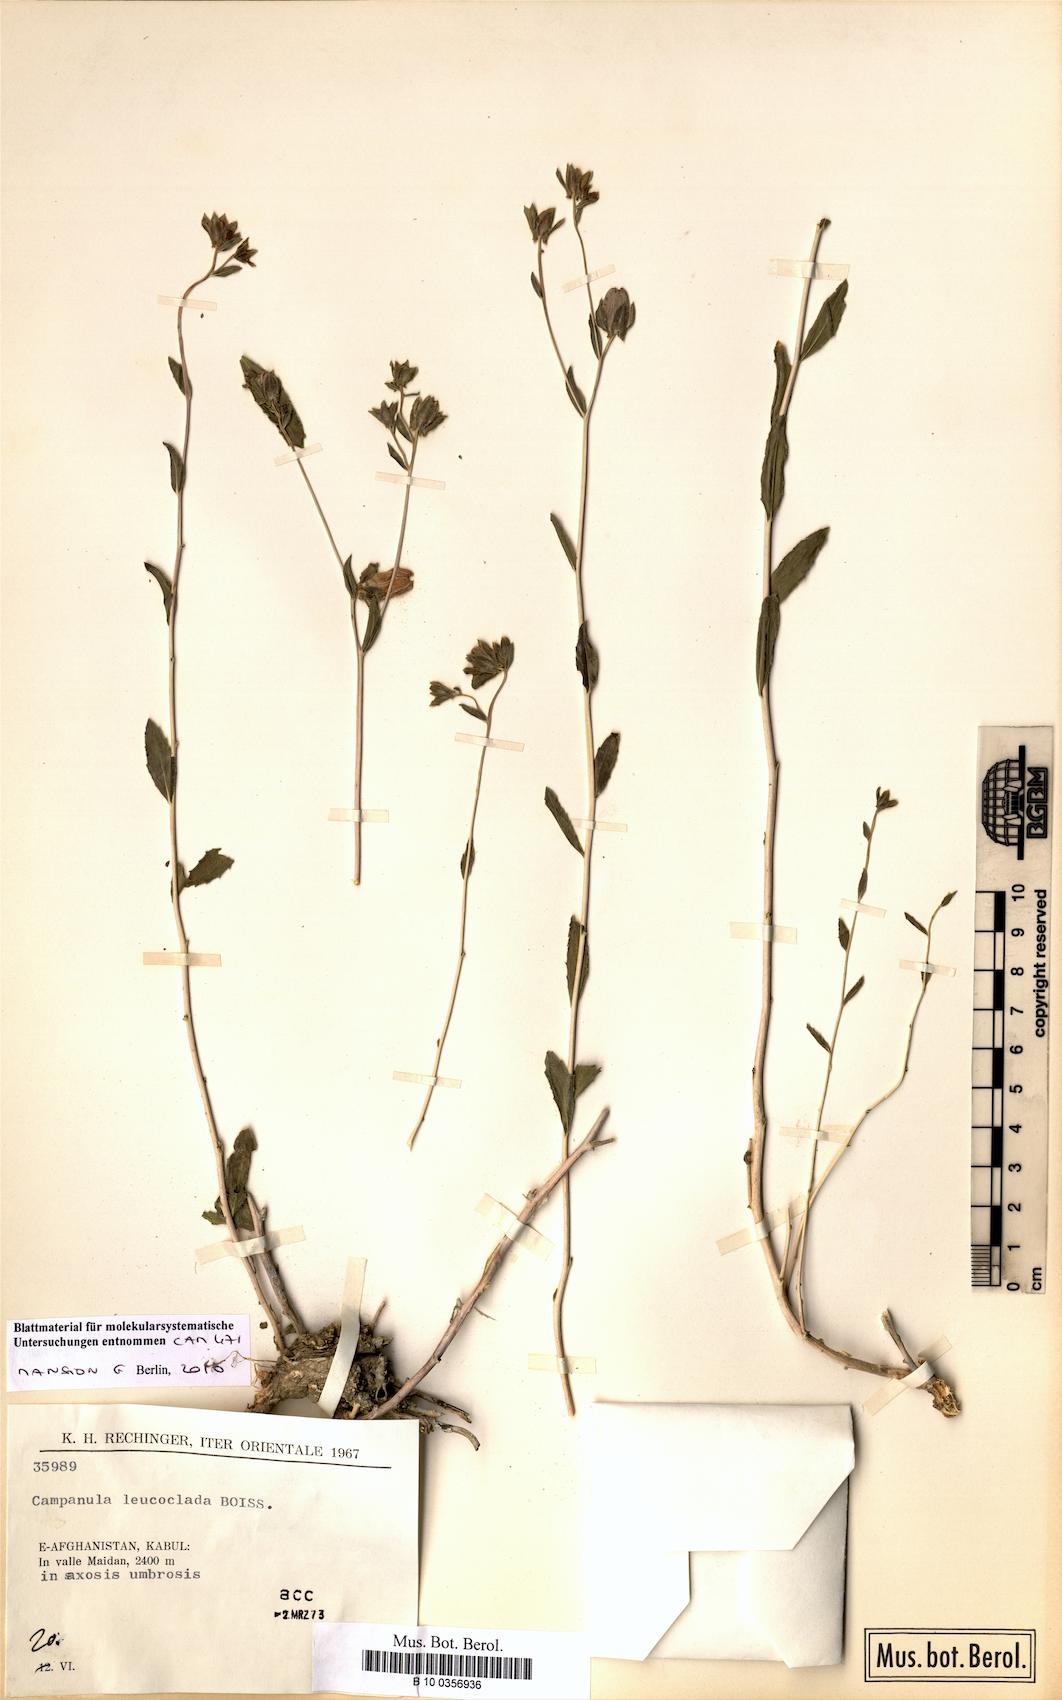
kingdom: Plantae
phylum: Tracheophyta
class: Magnoliopsida
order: Asterales
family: Campanulaceae
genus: Campanula
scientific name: Campanula leucoclada
